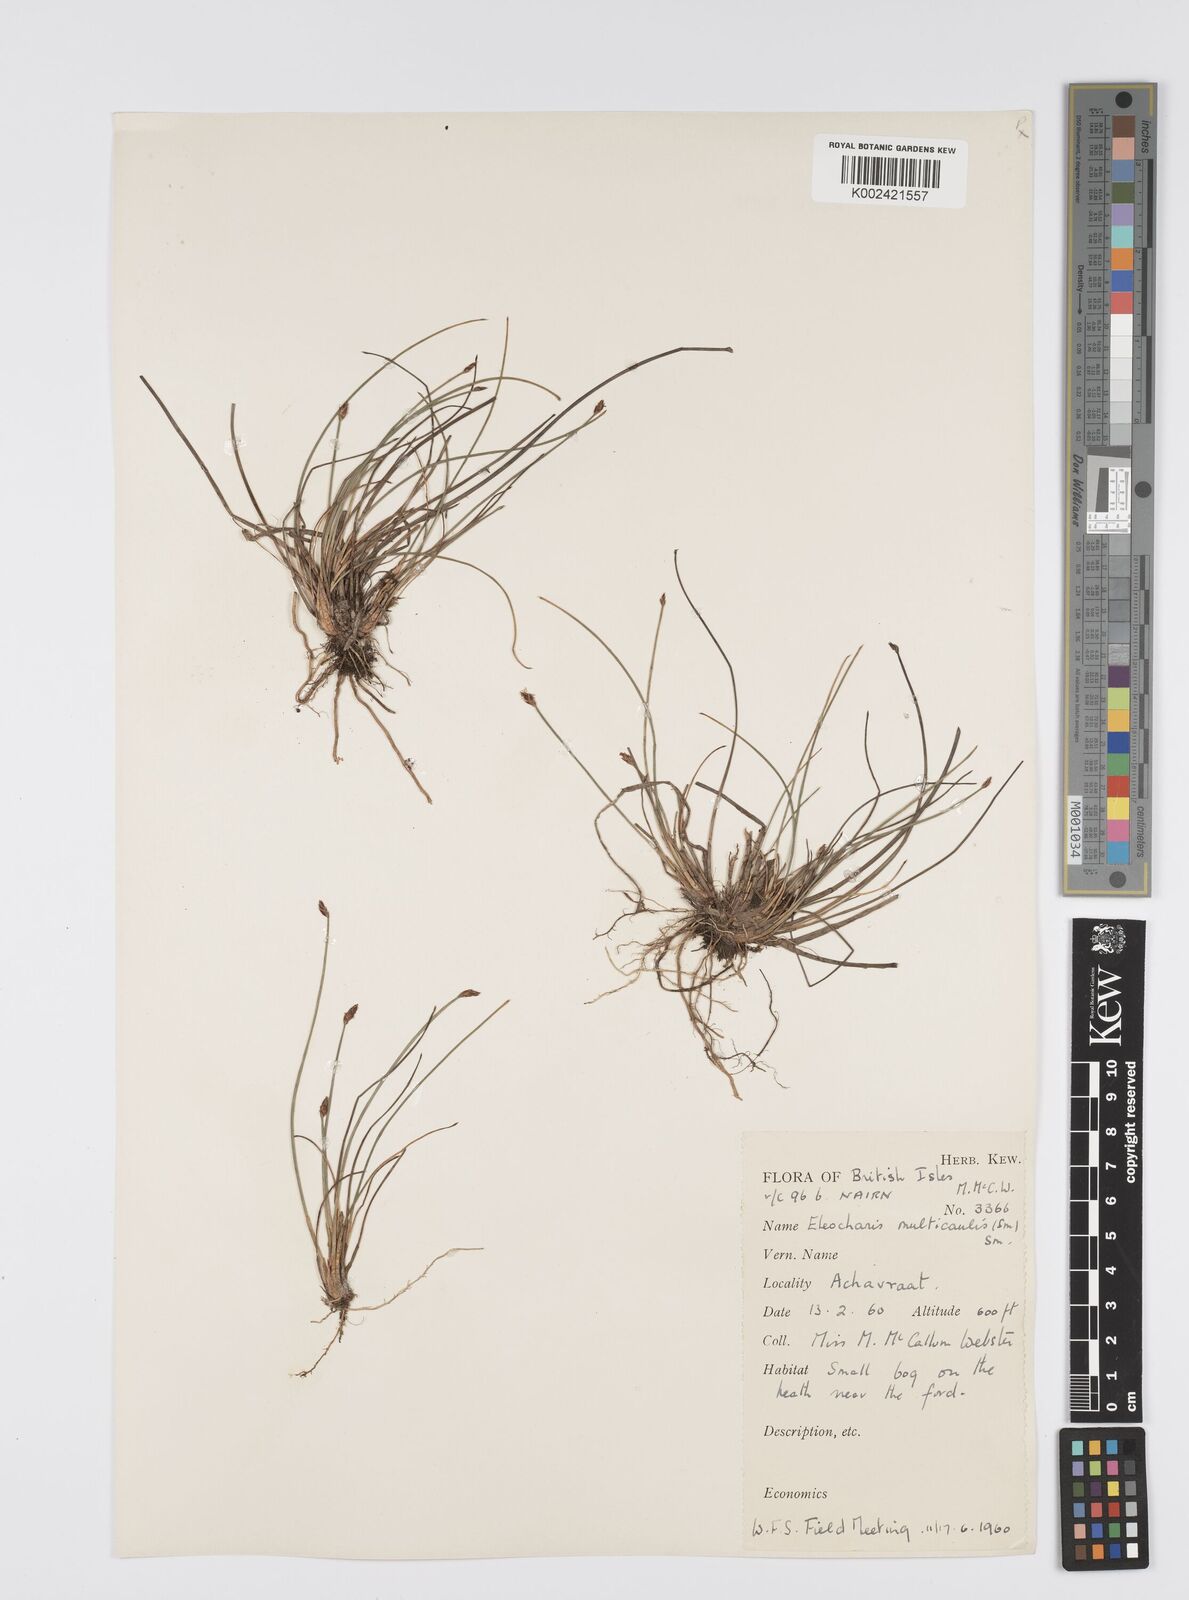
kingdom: Plantae
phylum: Tracheophyta
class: Liliopsida
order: Poales
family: Cyperaceae
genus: Eleocharis
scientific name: Eleocharis multicaulis
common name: Many-stalked spike-rush
